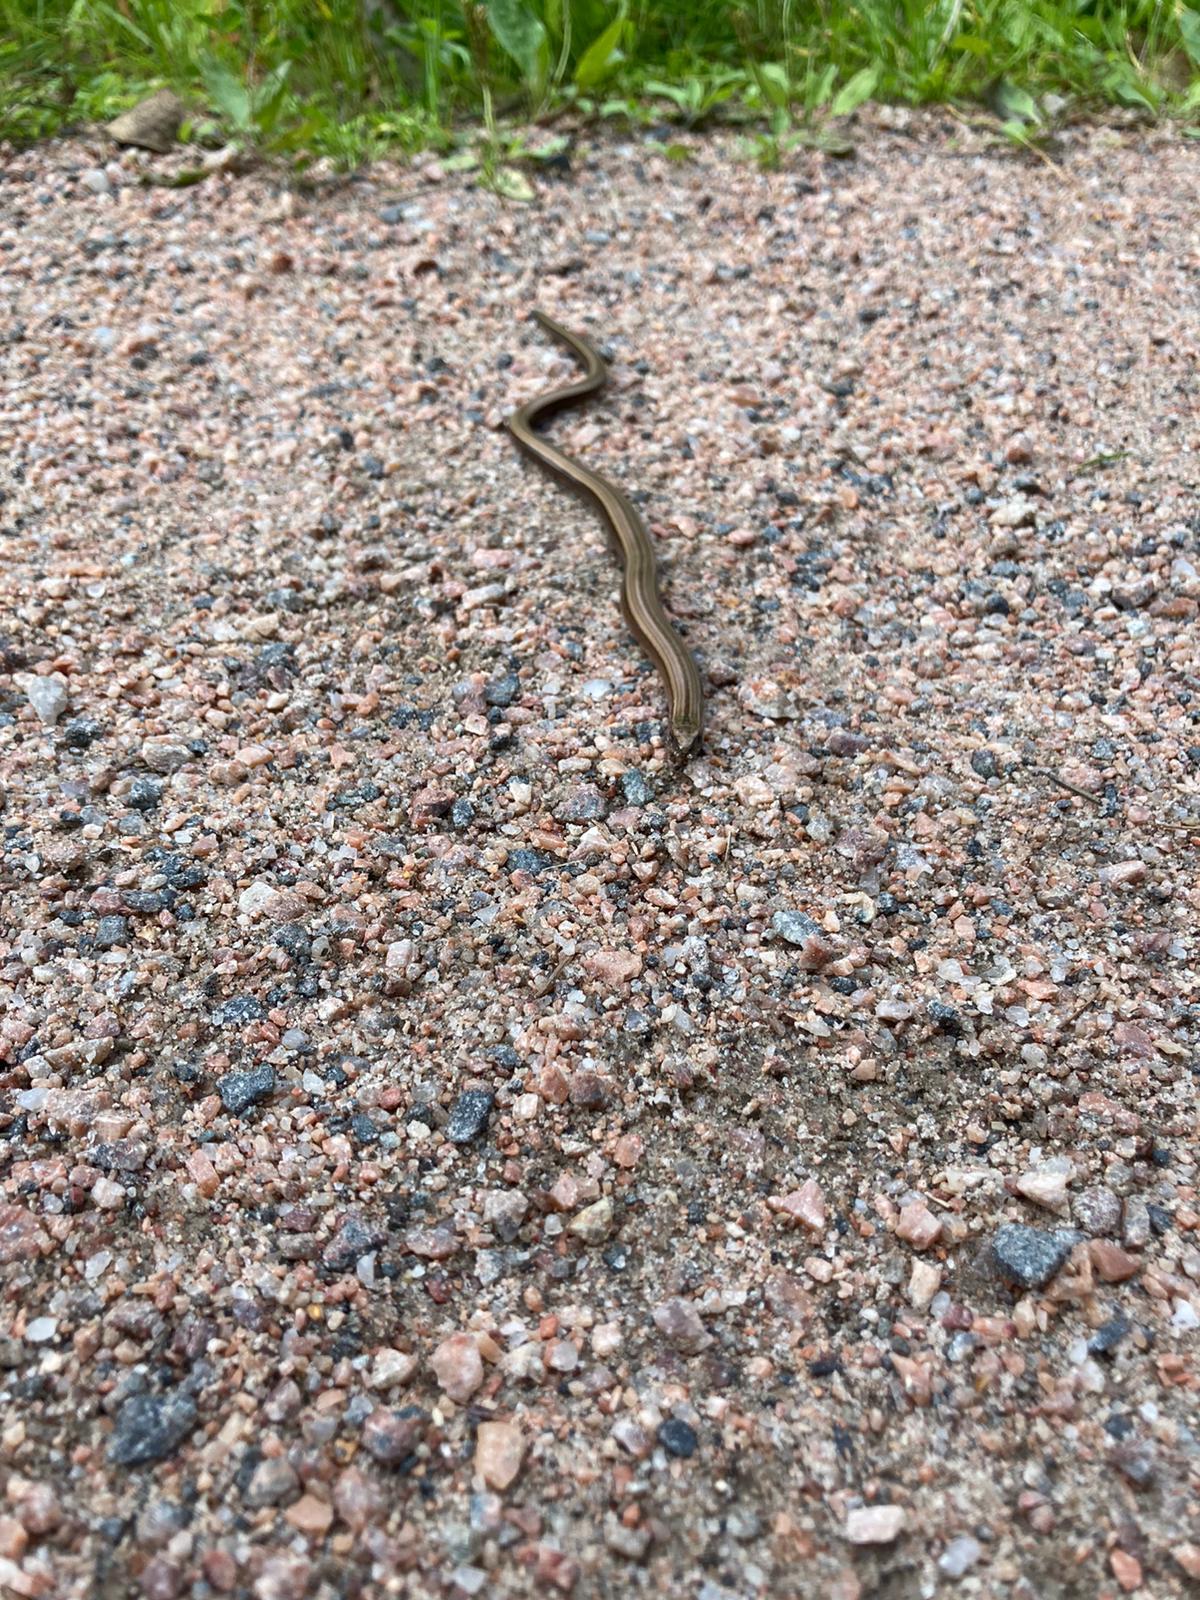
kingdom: Animalia
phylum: Chordata
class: Squamata
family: Anguidae
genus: Anguis
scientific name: Anguis colchica
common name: Slow worm
